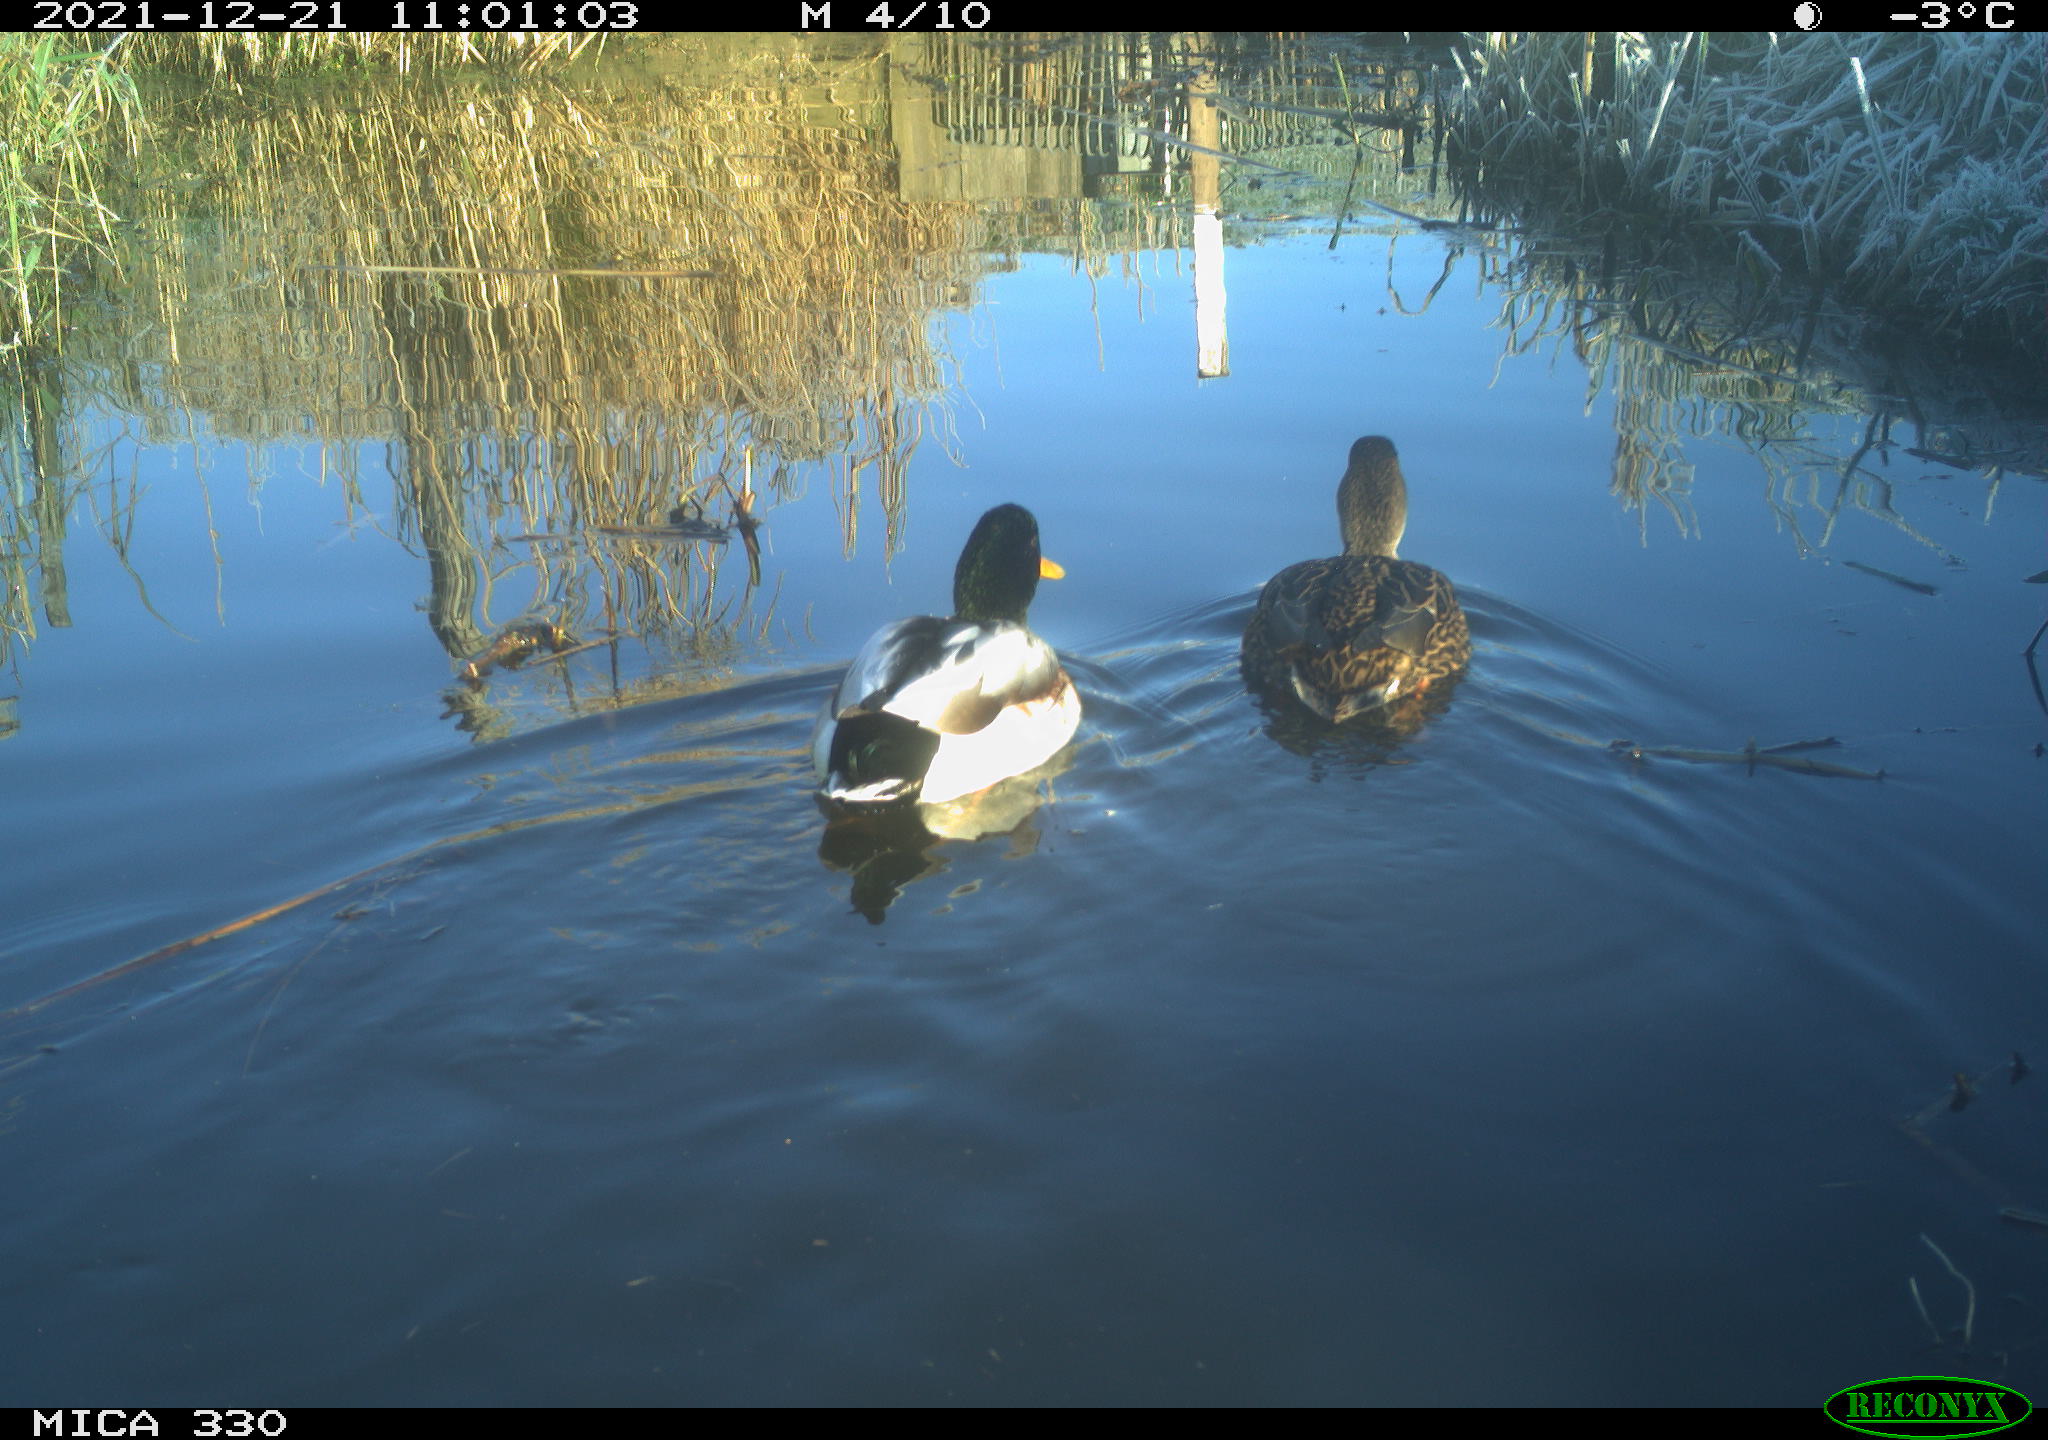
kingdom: Animalia
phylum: Chordata
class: Aves
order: Anseriformes
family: Anatidae
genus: Anas
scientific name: Anas platyrhynchos
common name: Mallard
